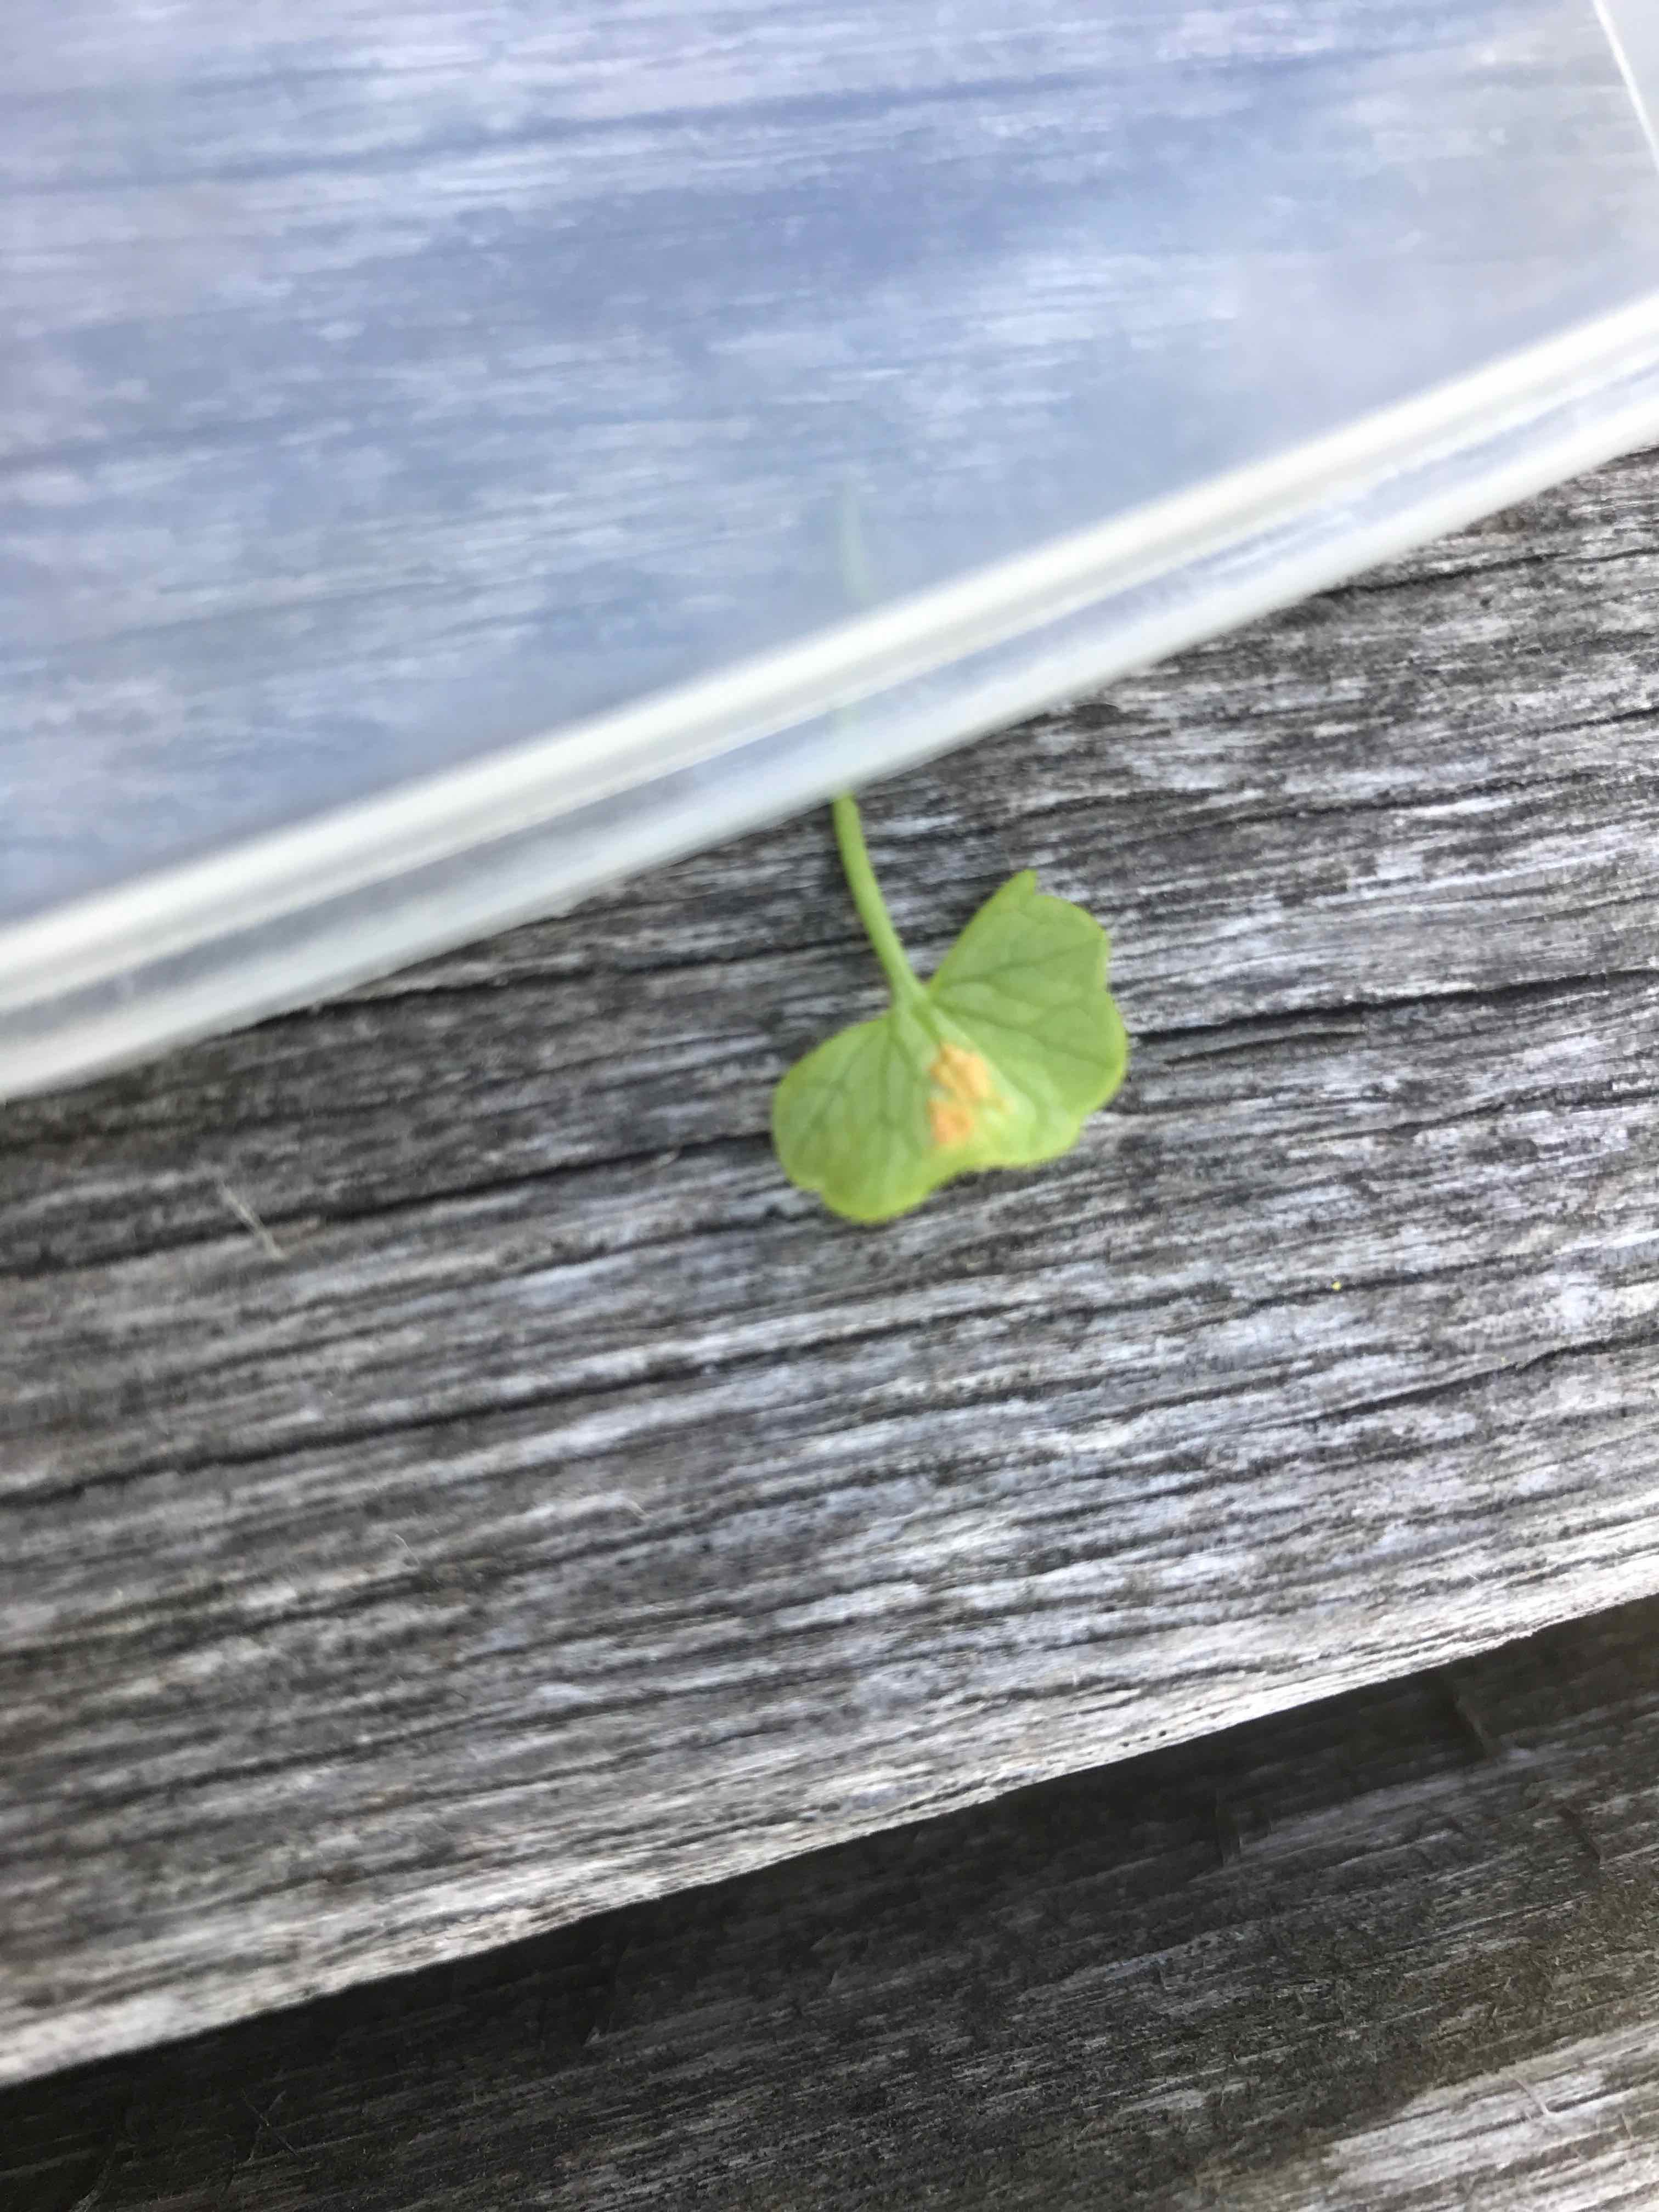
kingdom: Fungi
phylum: Basidiomycota
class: Pucciniomycetes
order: Pucciniales
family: Pucciniaceae
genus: Uromyces
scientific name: Uromyces dactylidis
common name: ranunkel-encellerust
